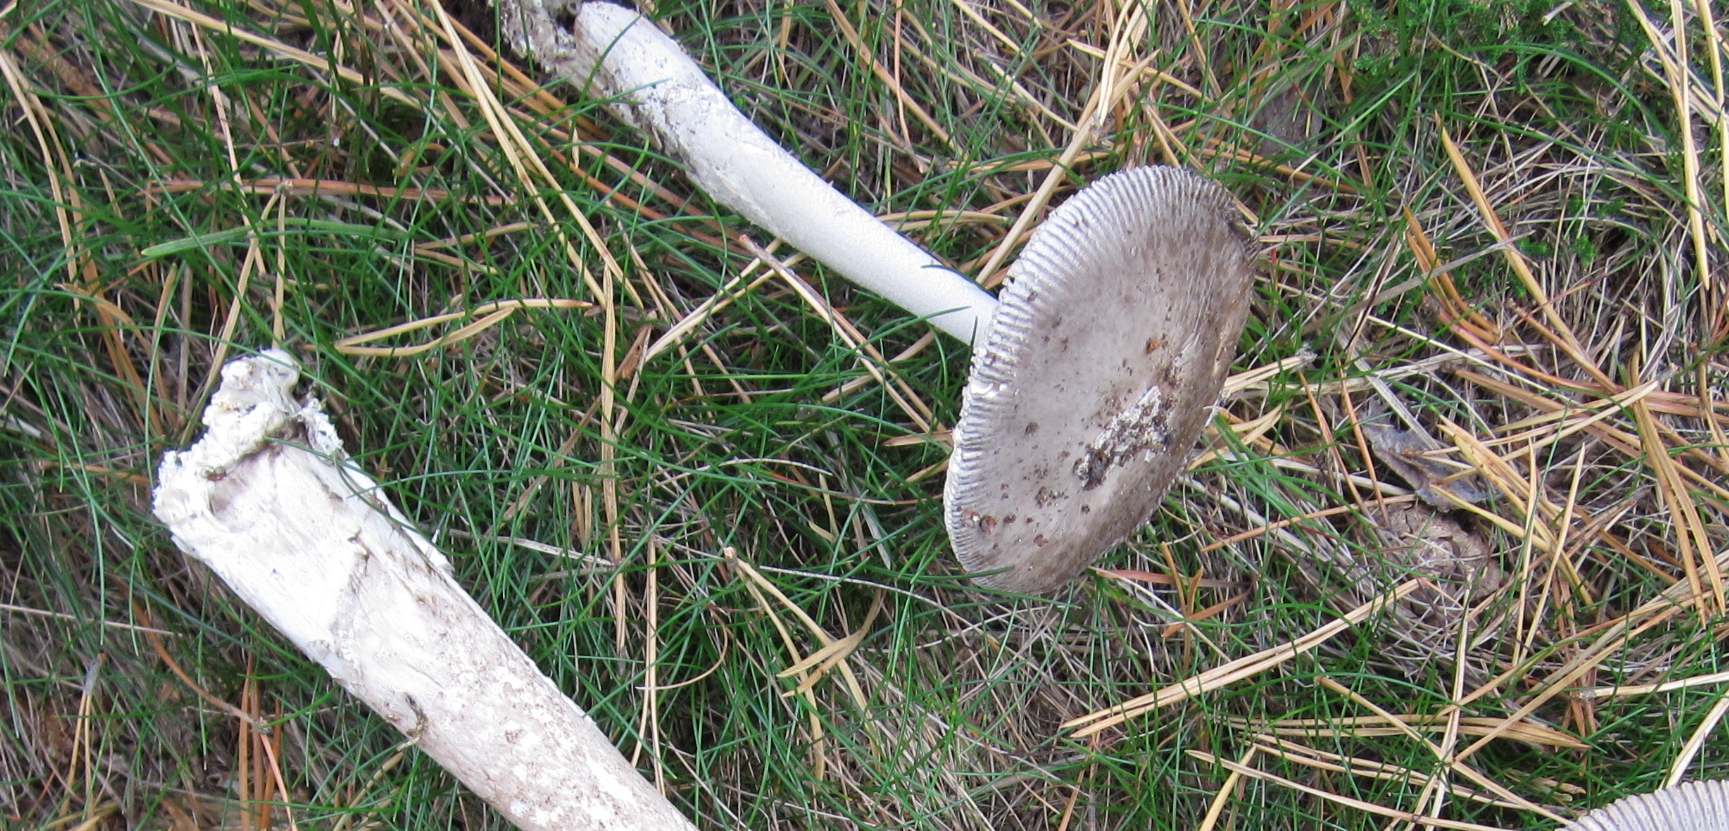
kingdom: Fungi
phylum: Basidiomycota
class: Agaricomycetes
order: Agaricales
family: Amanitaceae
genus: Amanita
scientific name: Amanita submembranacea
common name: gråspættet kam-fluesvamp
